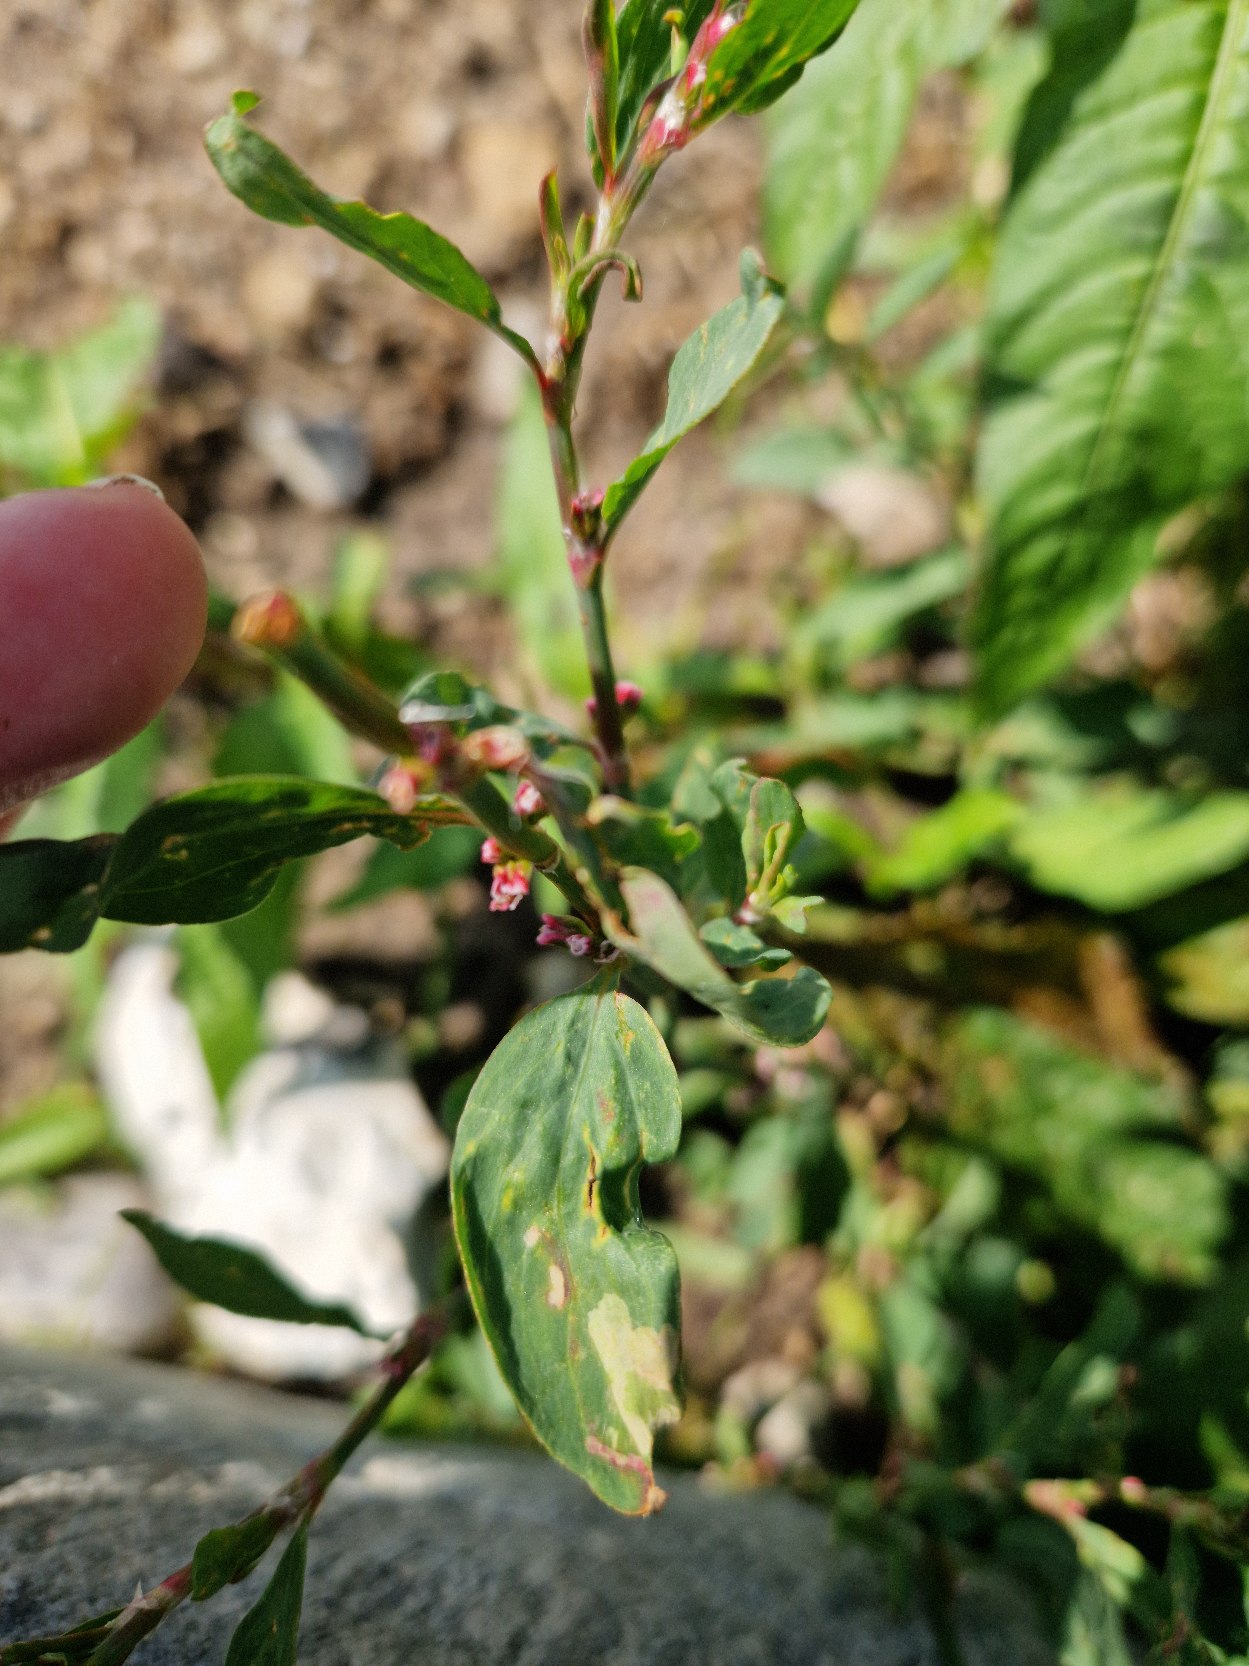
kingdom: Plantae
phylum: Tracheophyta
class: Magnoliopsida
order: Caryophyllales
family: Polygonaceae
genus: Polygonum
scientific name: Polygonum aviculare
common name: Vej-pileurt (underart)
